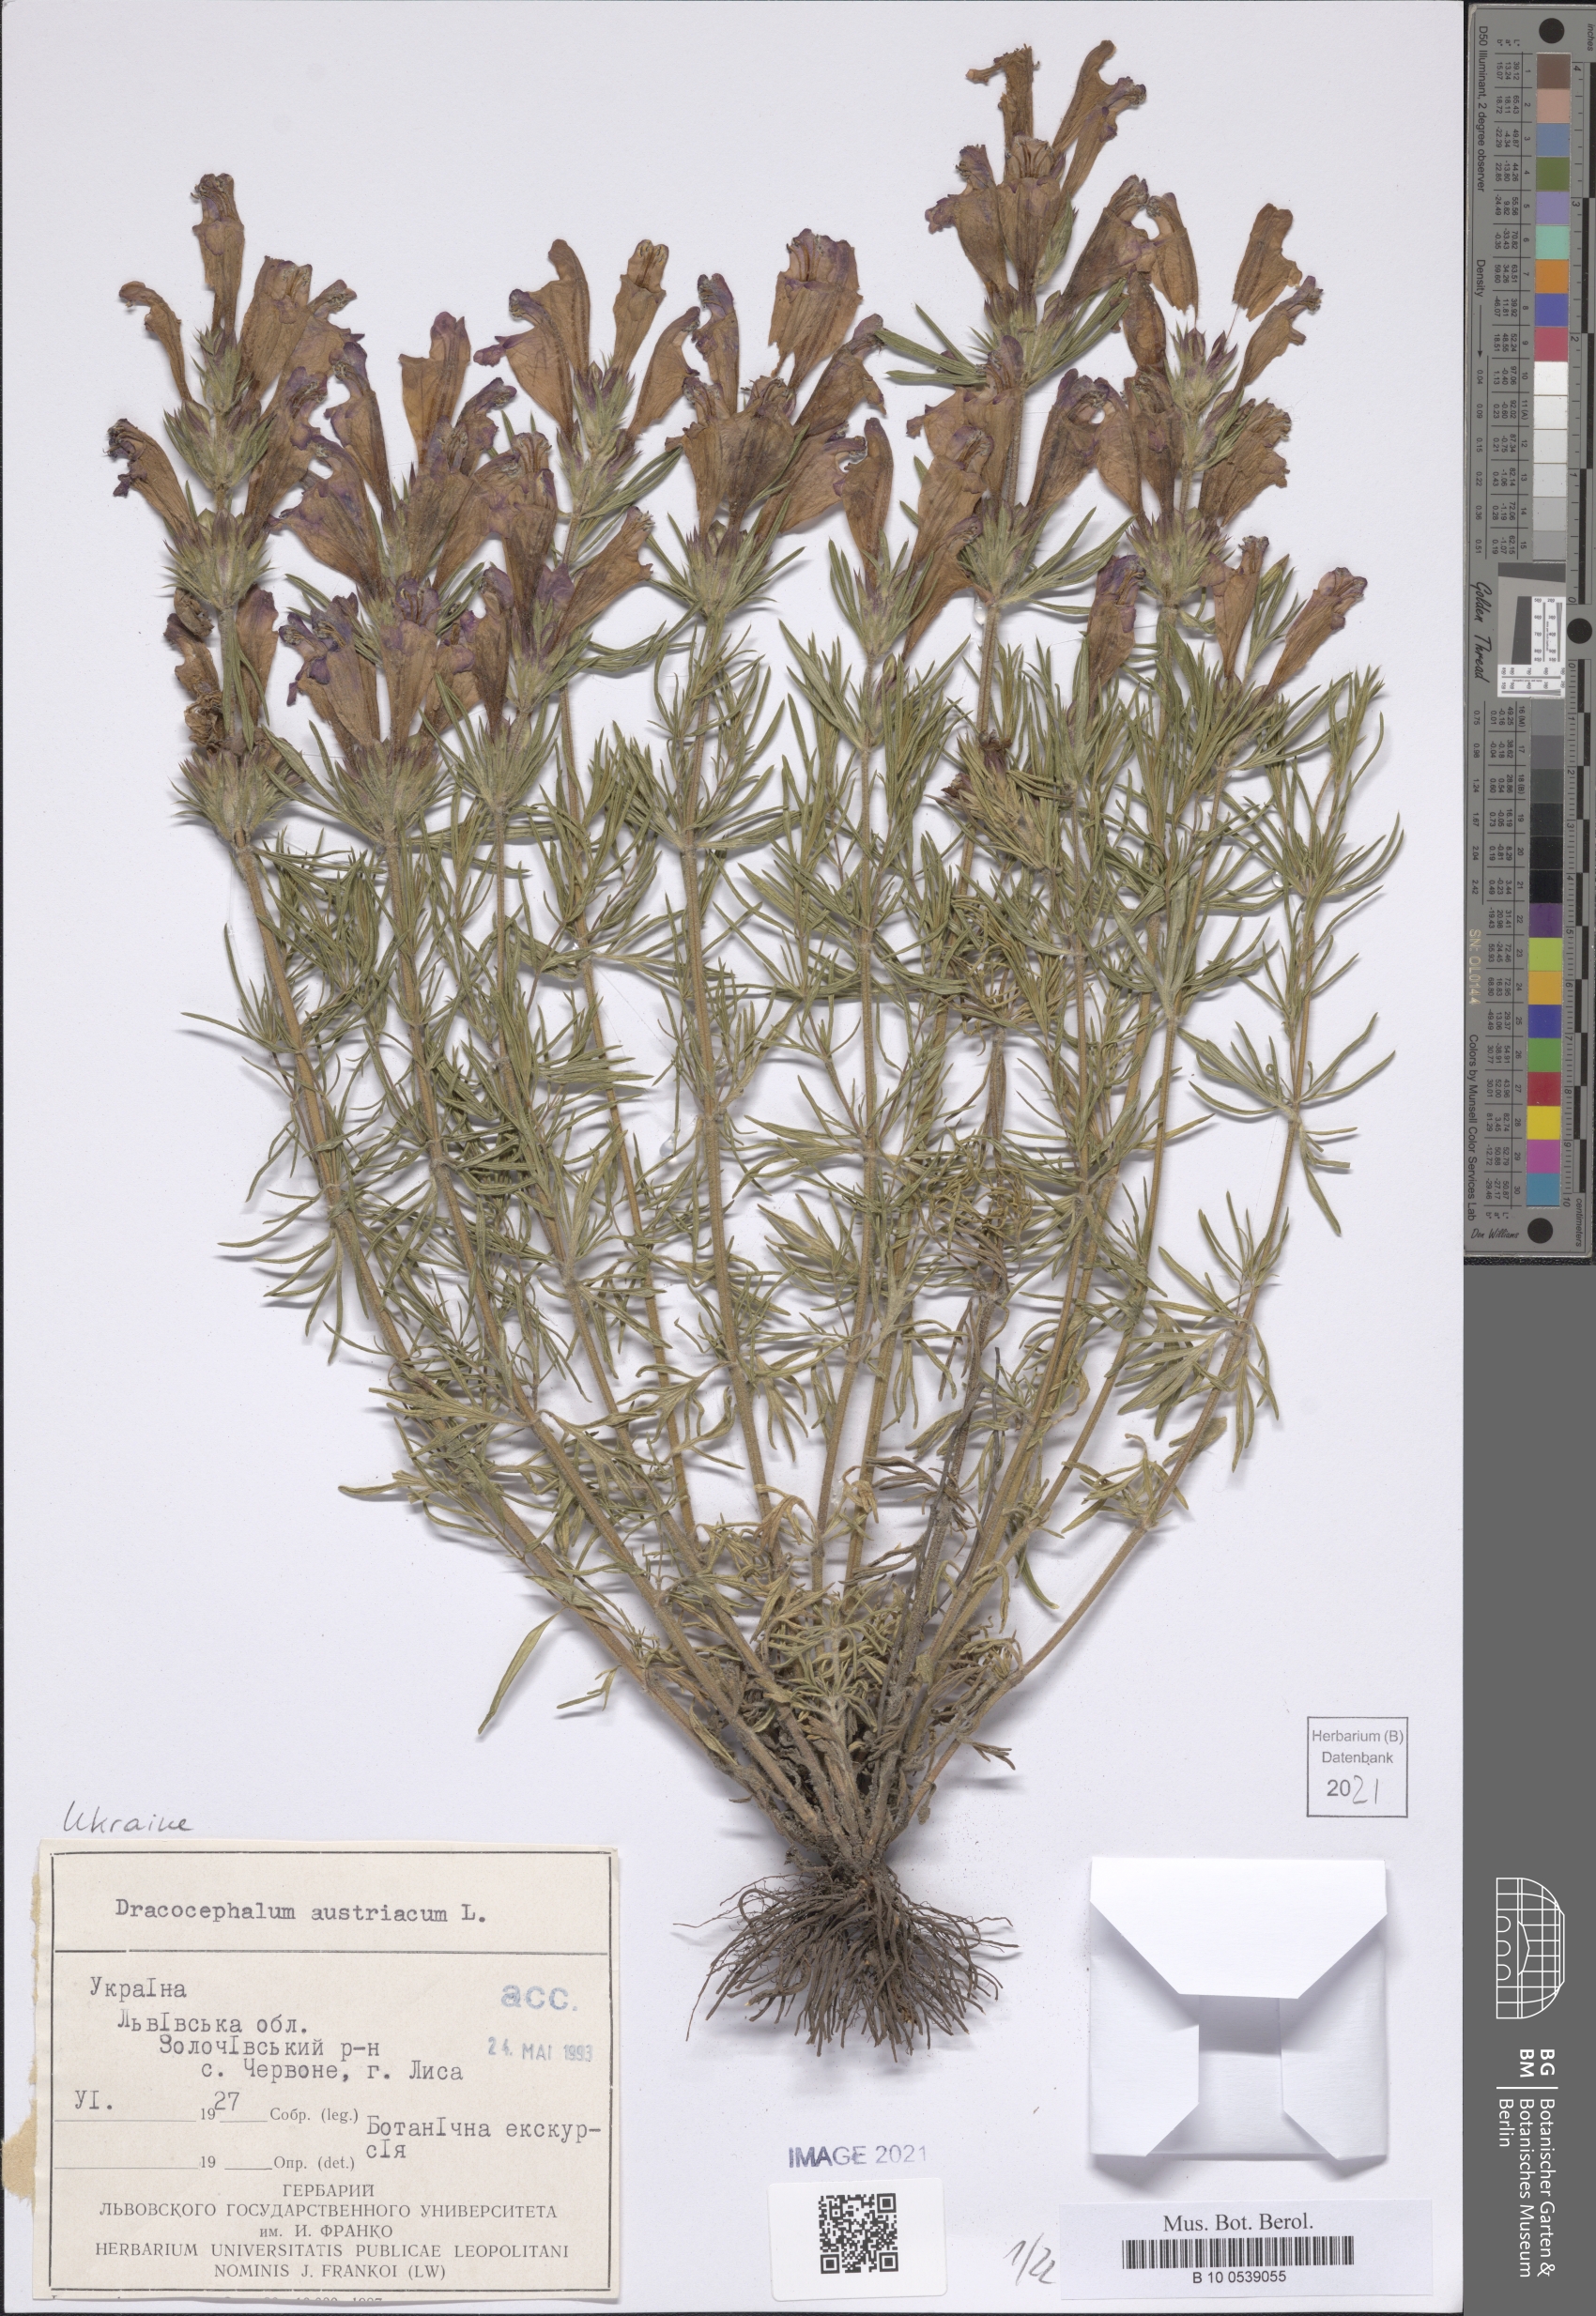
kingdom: Plantae
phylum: Tracheophyta
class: Magnoliopsida
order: Lamiales
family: Lamiaceae
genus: Dracocephalum
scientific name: Dracocephalum austriacum
